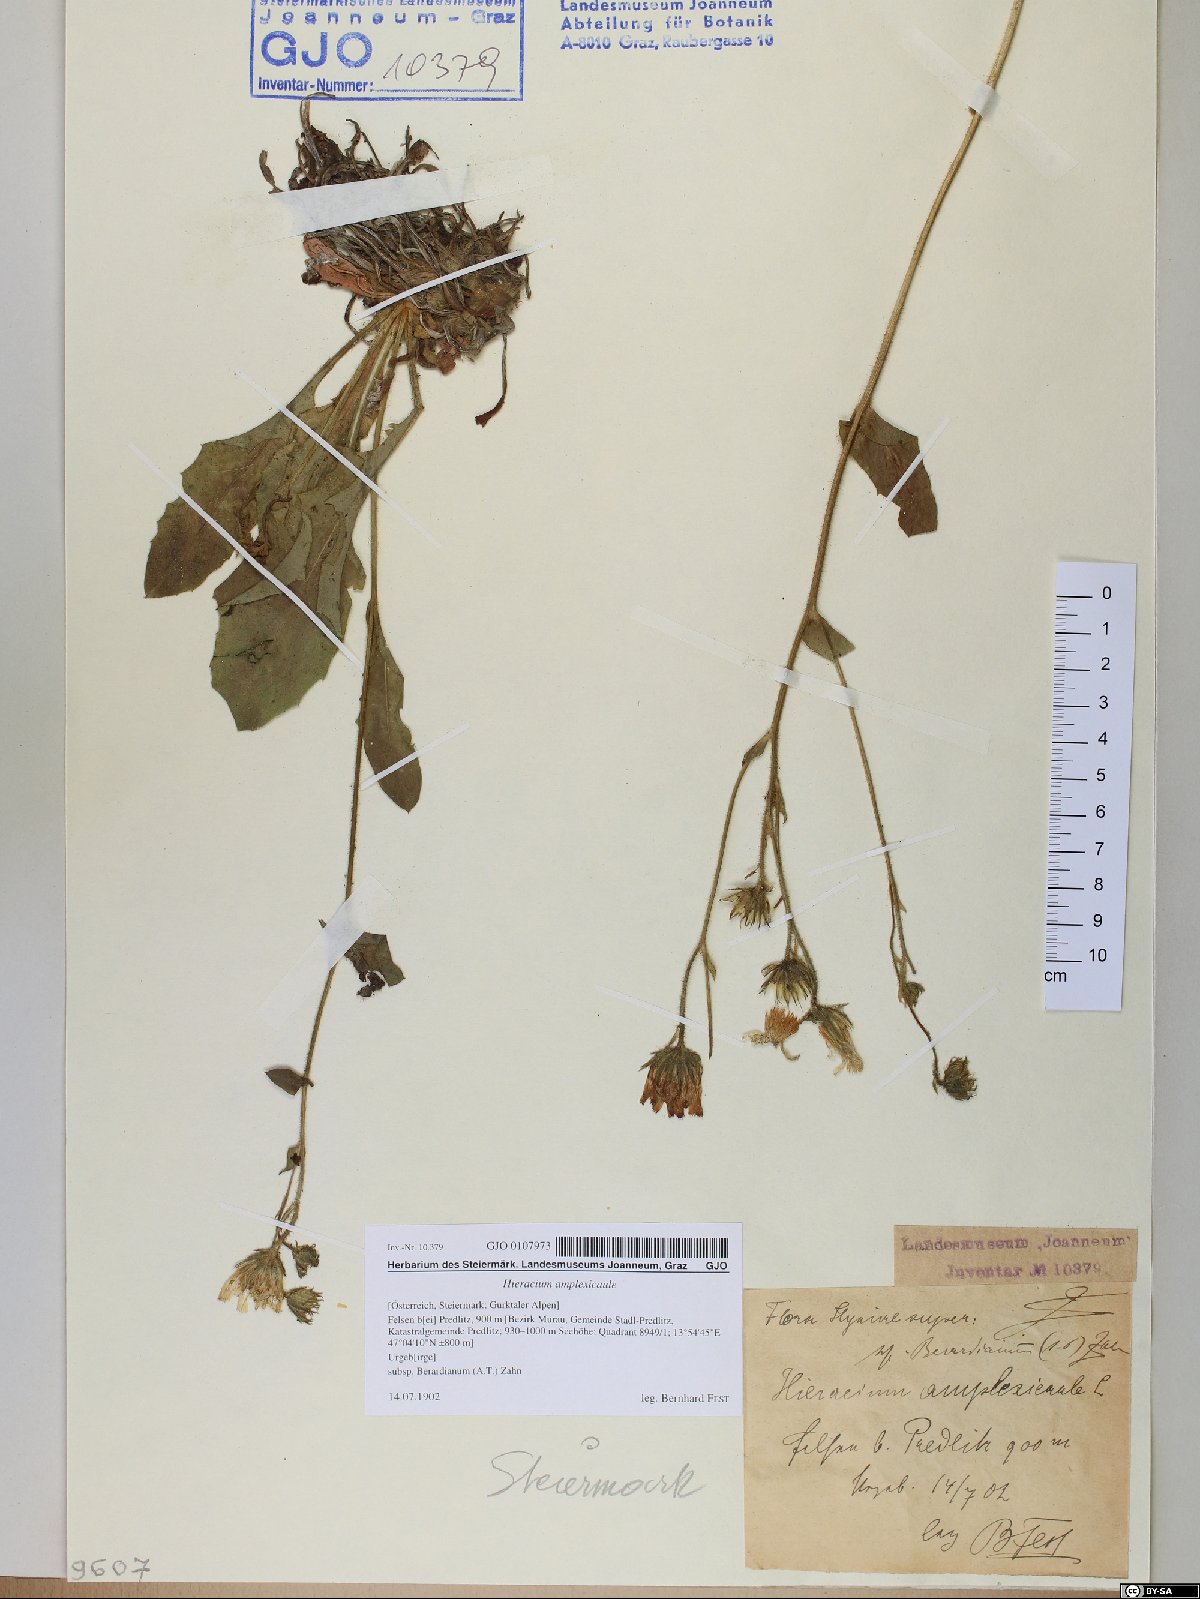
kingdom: Plantae
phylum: Tracheophyta
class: Magnoliopsida
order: Asterales
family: Asteraceae
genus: Hieracium
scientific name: Hieracium amplexicaule
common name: Sticky hawkweed
